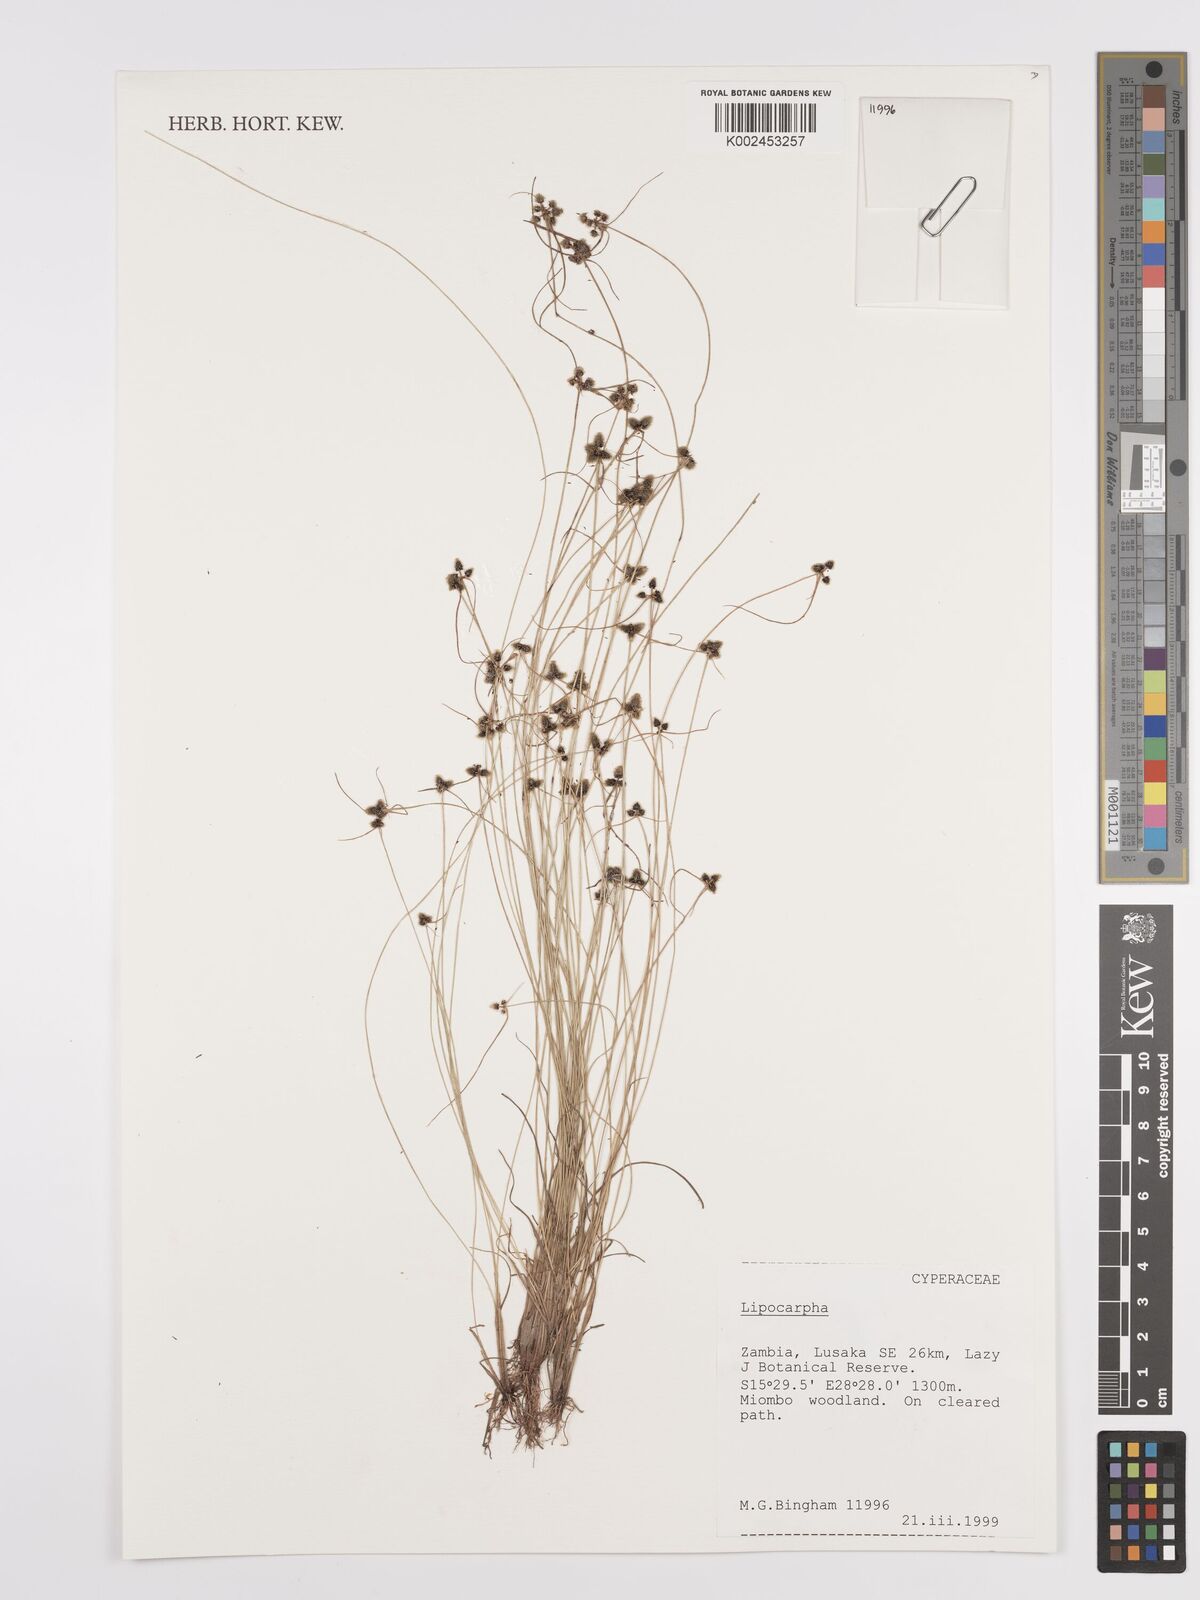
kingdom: Plantae
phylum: Tracheophyta
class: Liliopsida
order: Poales
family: Cyperaceae
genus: Cyperus
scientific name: Cyperus
